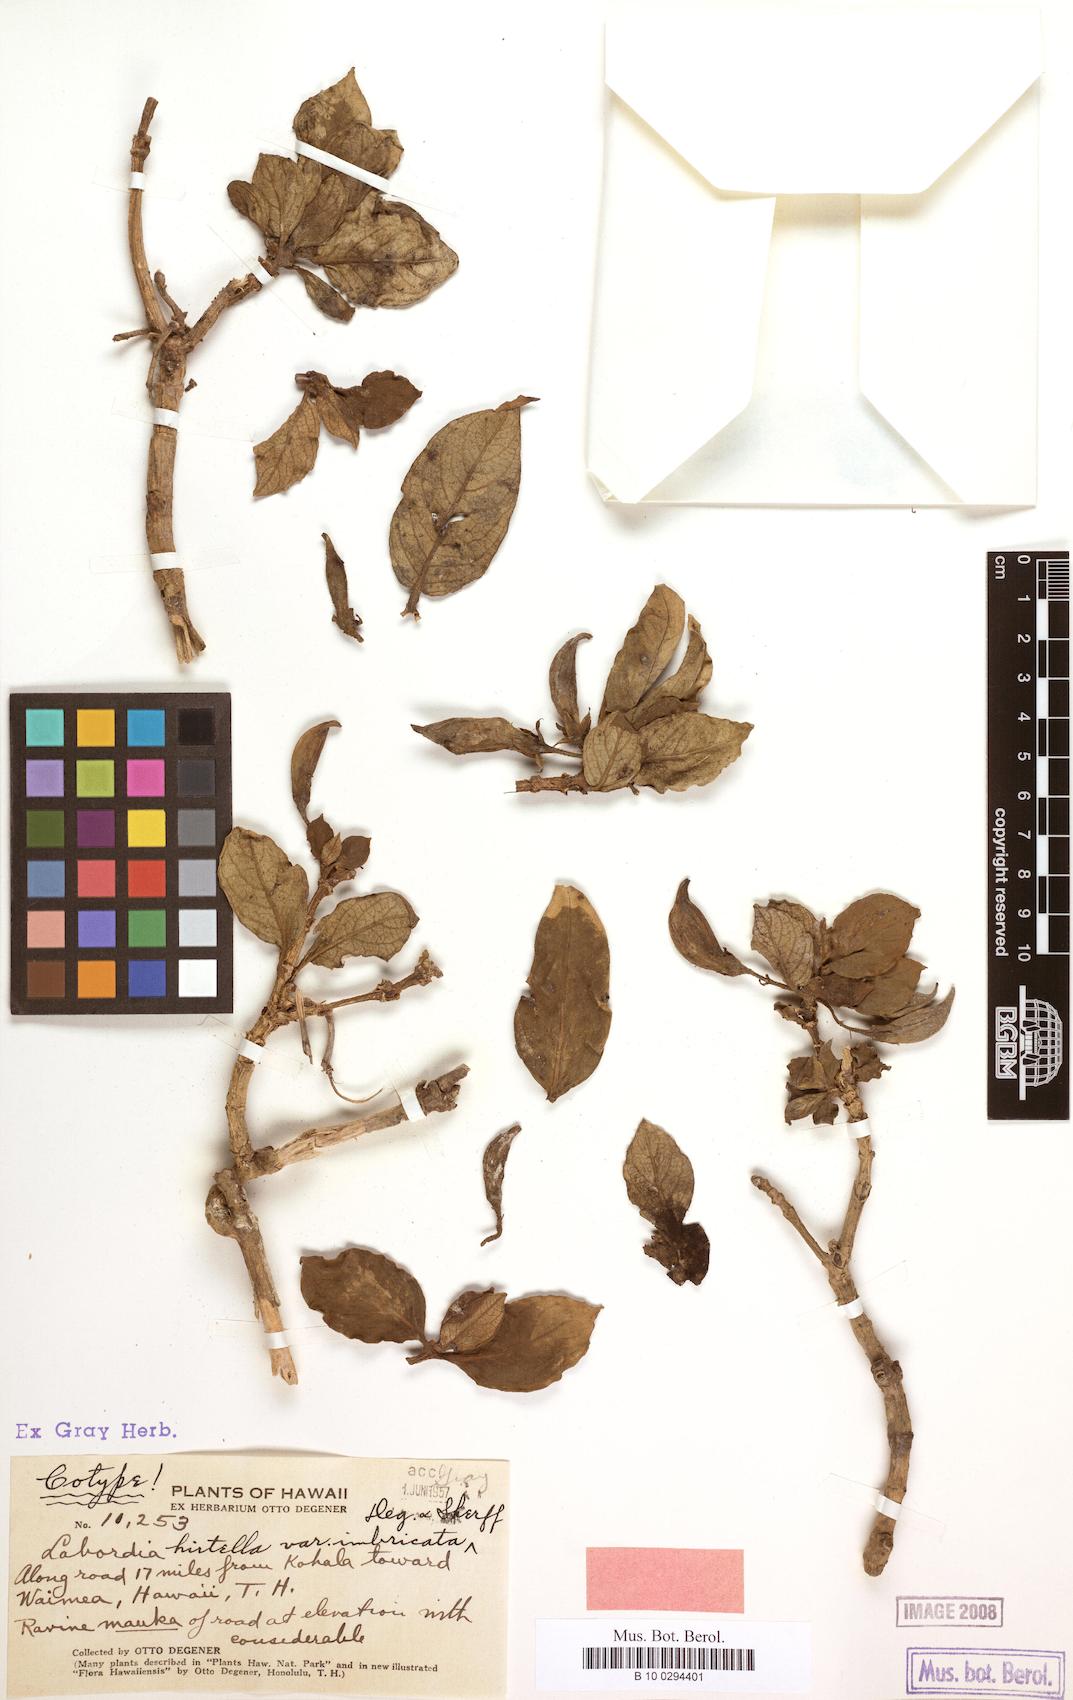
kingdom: Plantae
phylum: Tracheophyta
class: Magnoliopsida
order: Gentianales
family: Loganiaceae
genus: Geniostoma
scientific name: Geniostoma hirtellum
